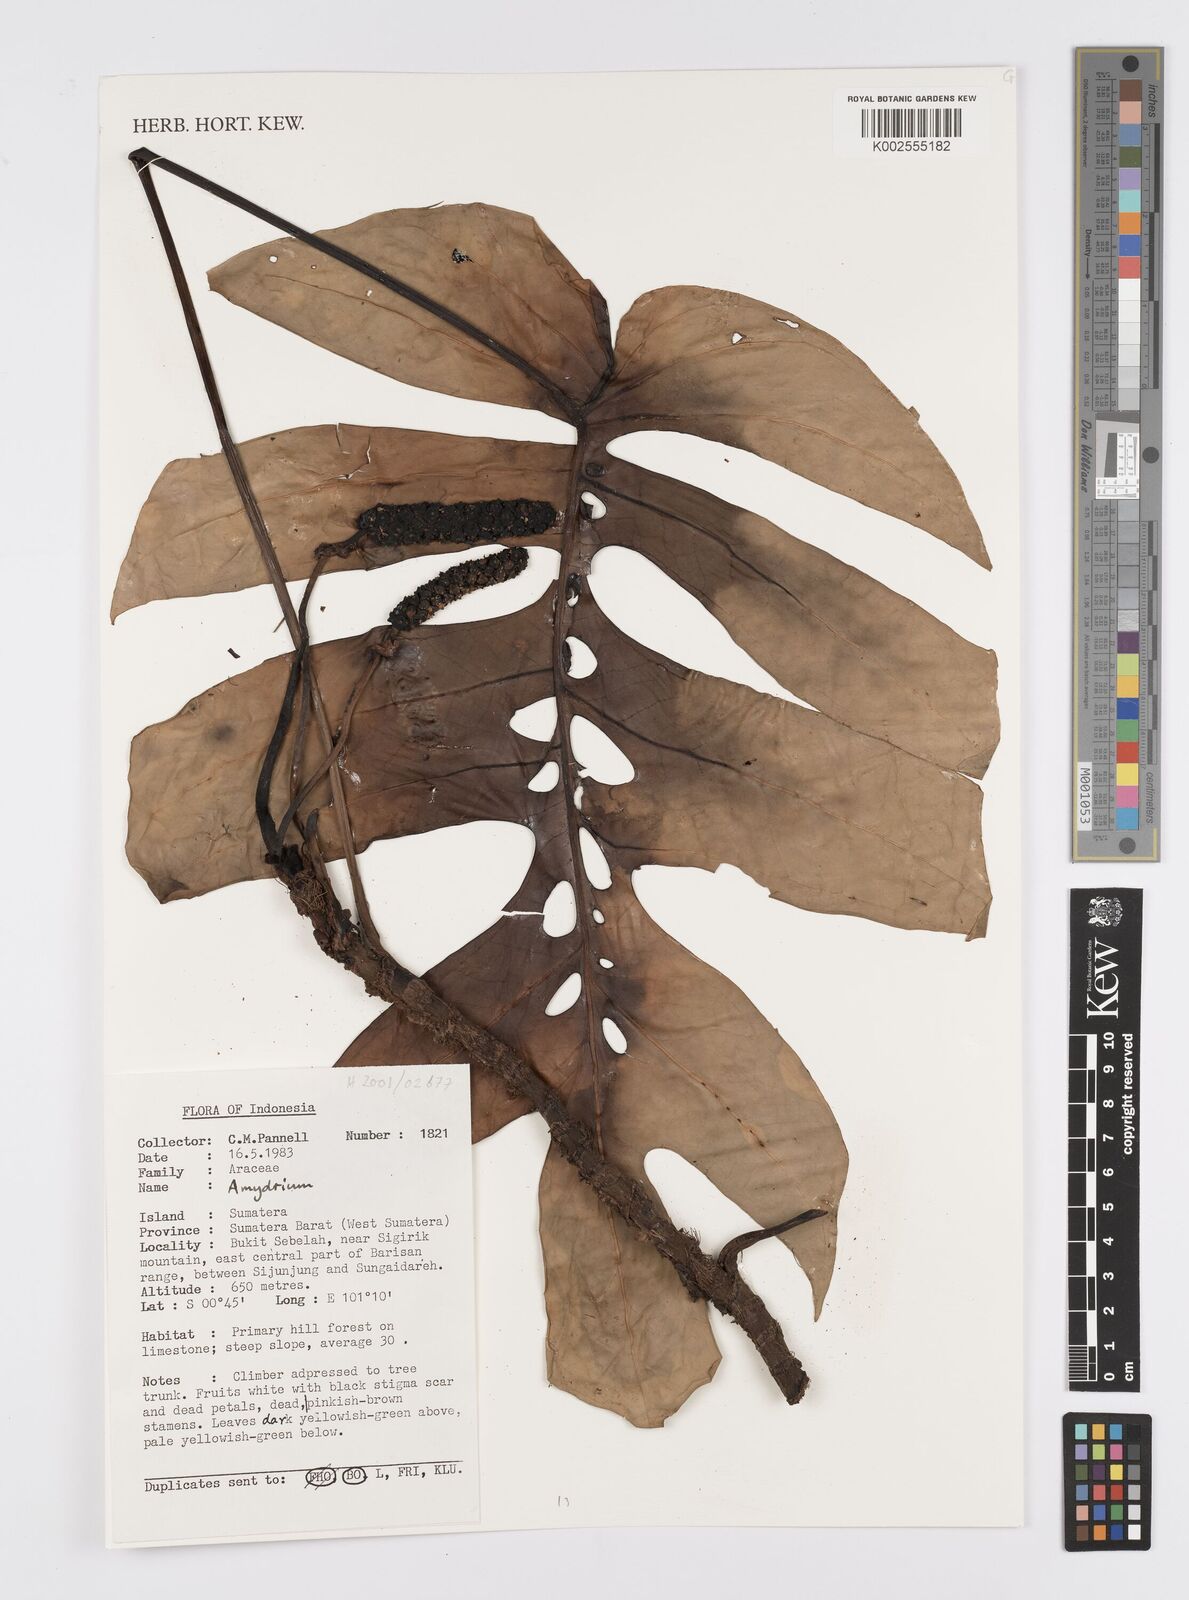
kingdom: Plantae
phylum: Tracheophyta
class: Liliopsida
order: Alismatales
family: Araceae
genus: Amydrium
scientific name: Amydrium
